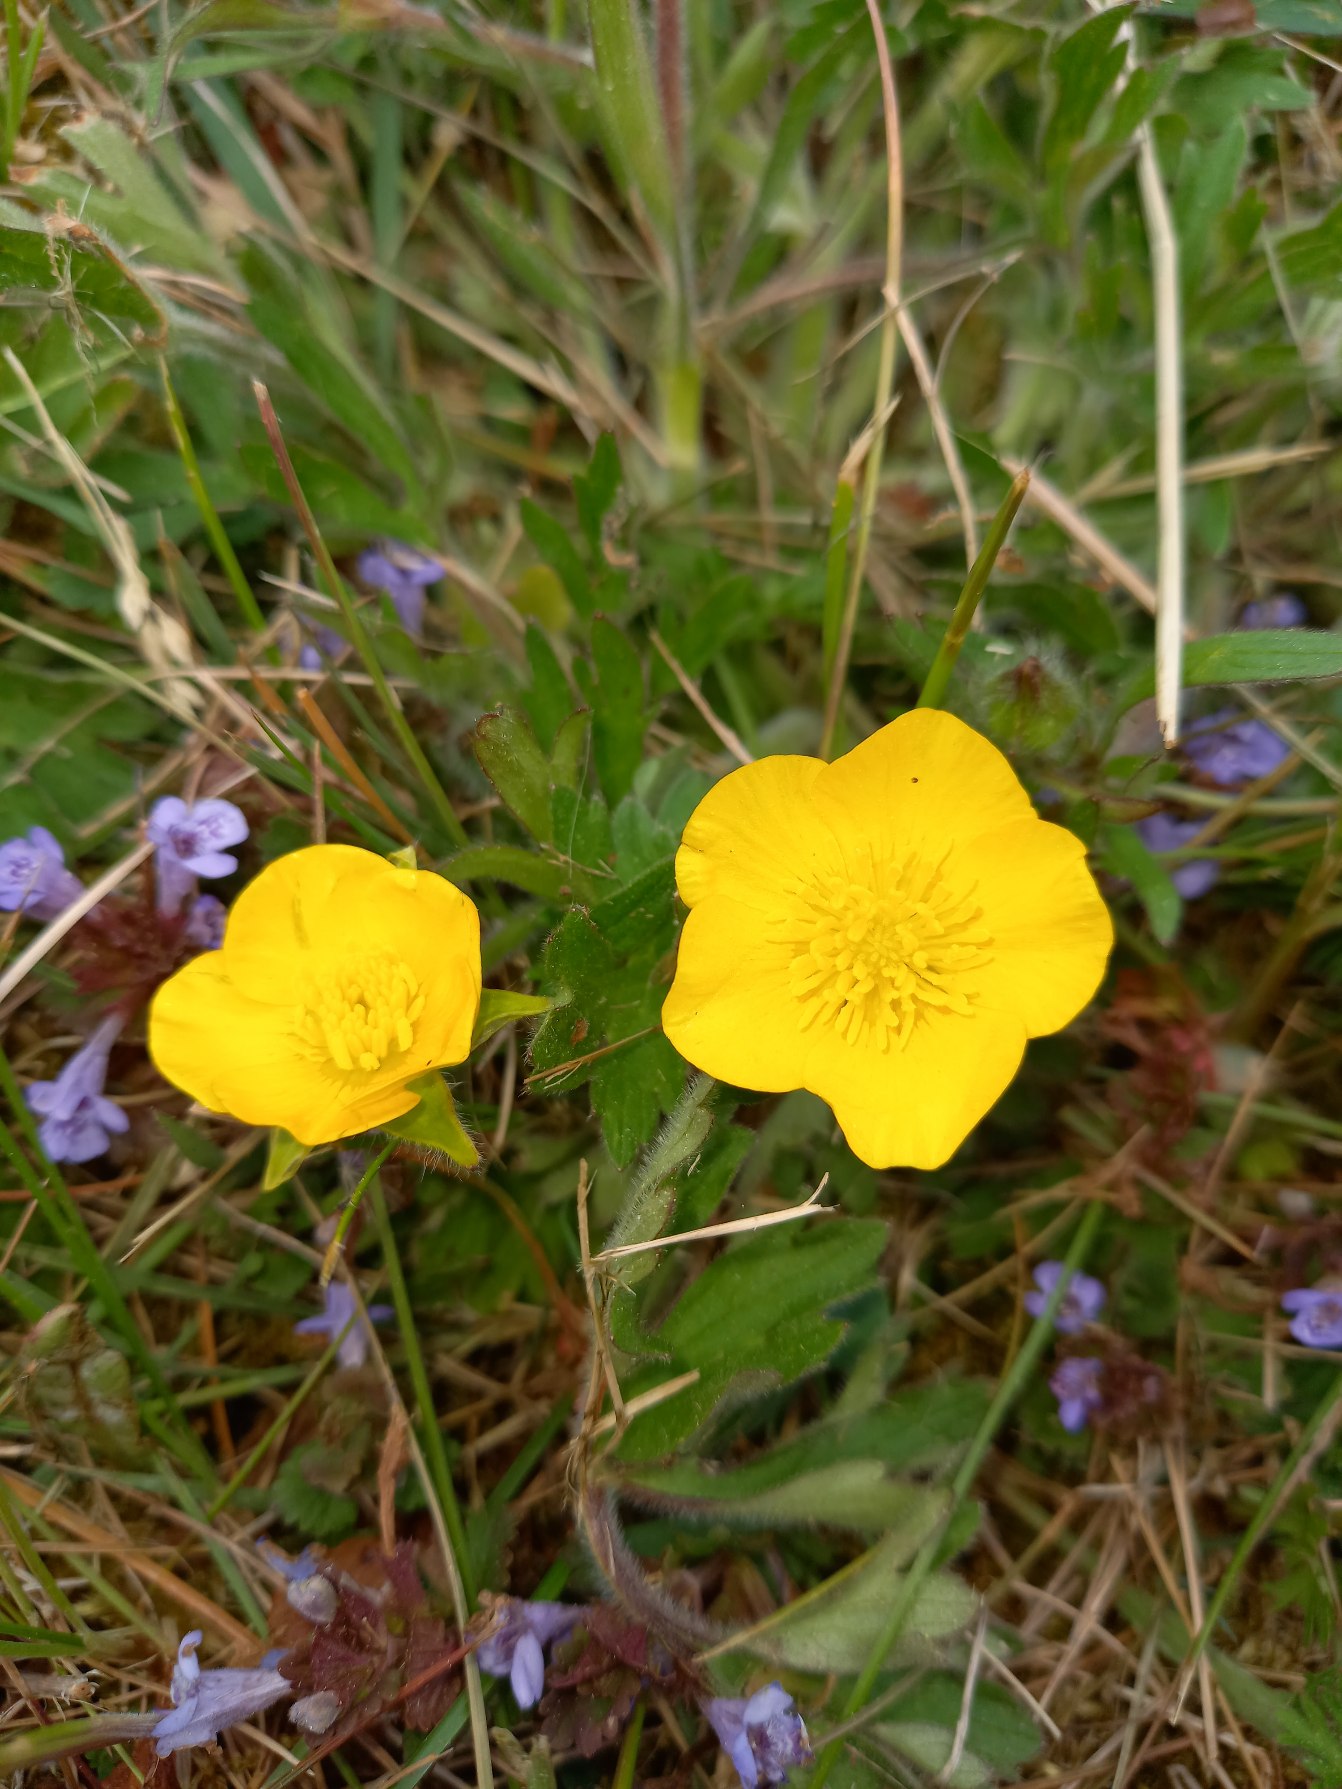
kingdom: Plantae
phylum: Tracheophyta
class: Magnoliopsida
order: Ranunculales
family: Ranunculaceae
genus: Ranunculus
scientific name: Ranunculus
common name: Ranunkelslægten
